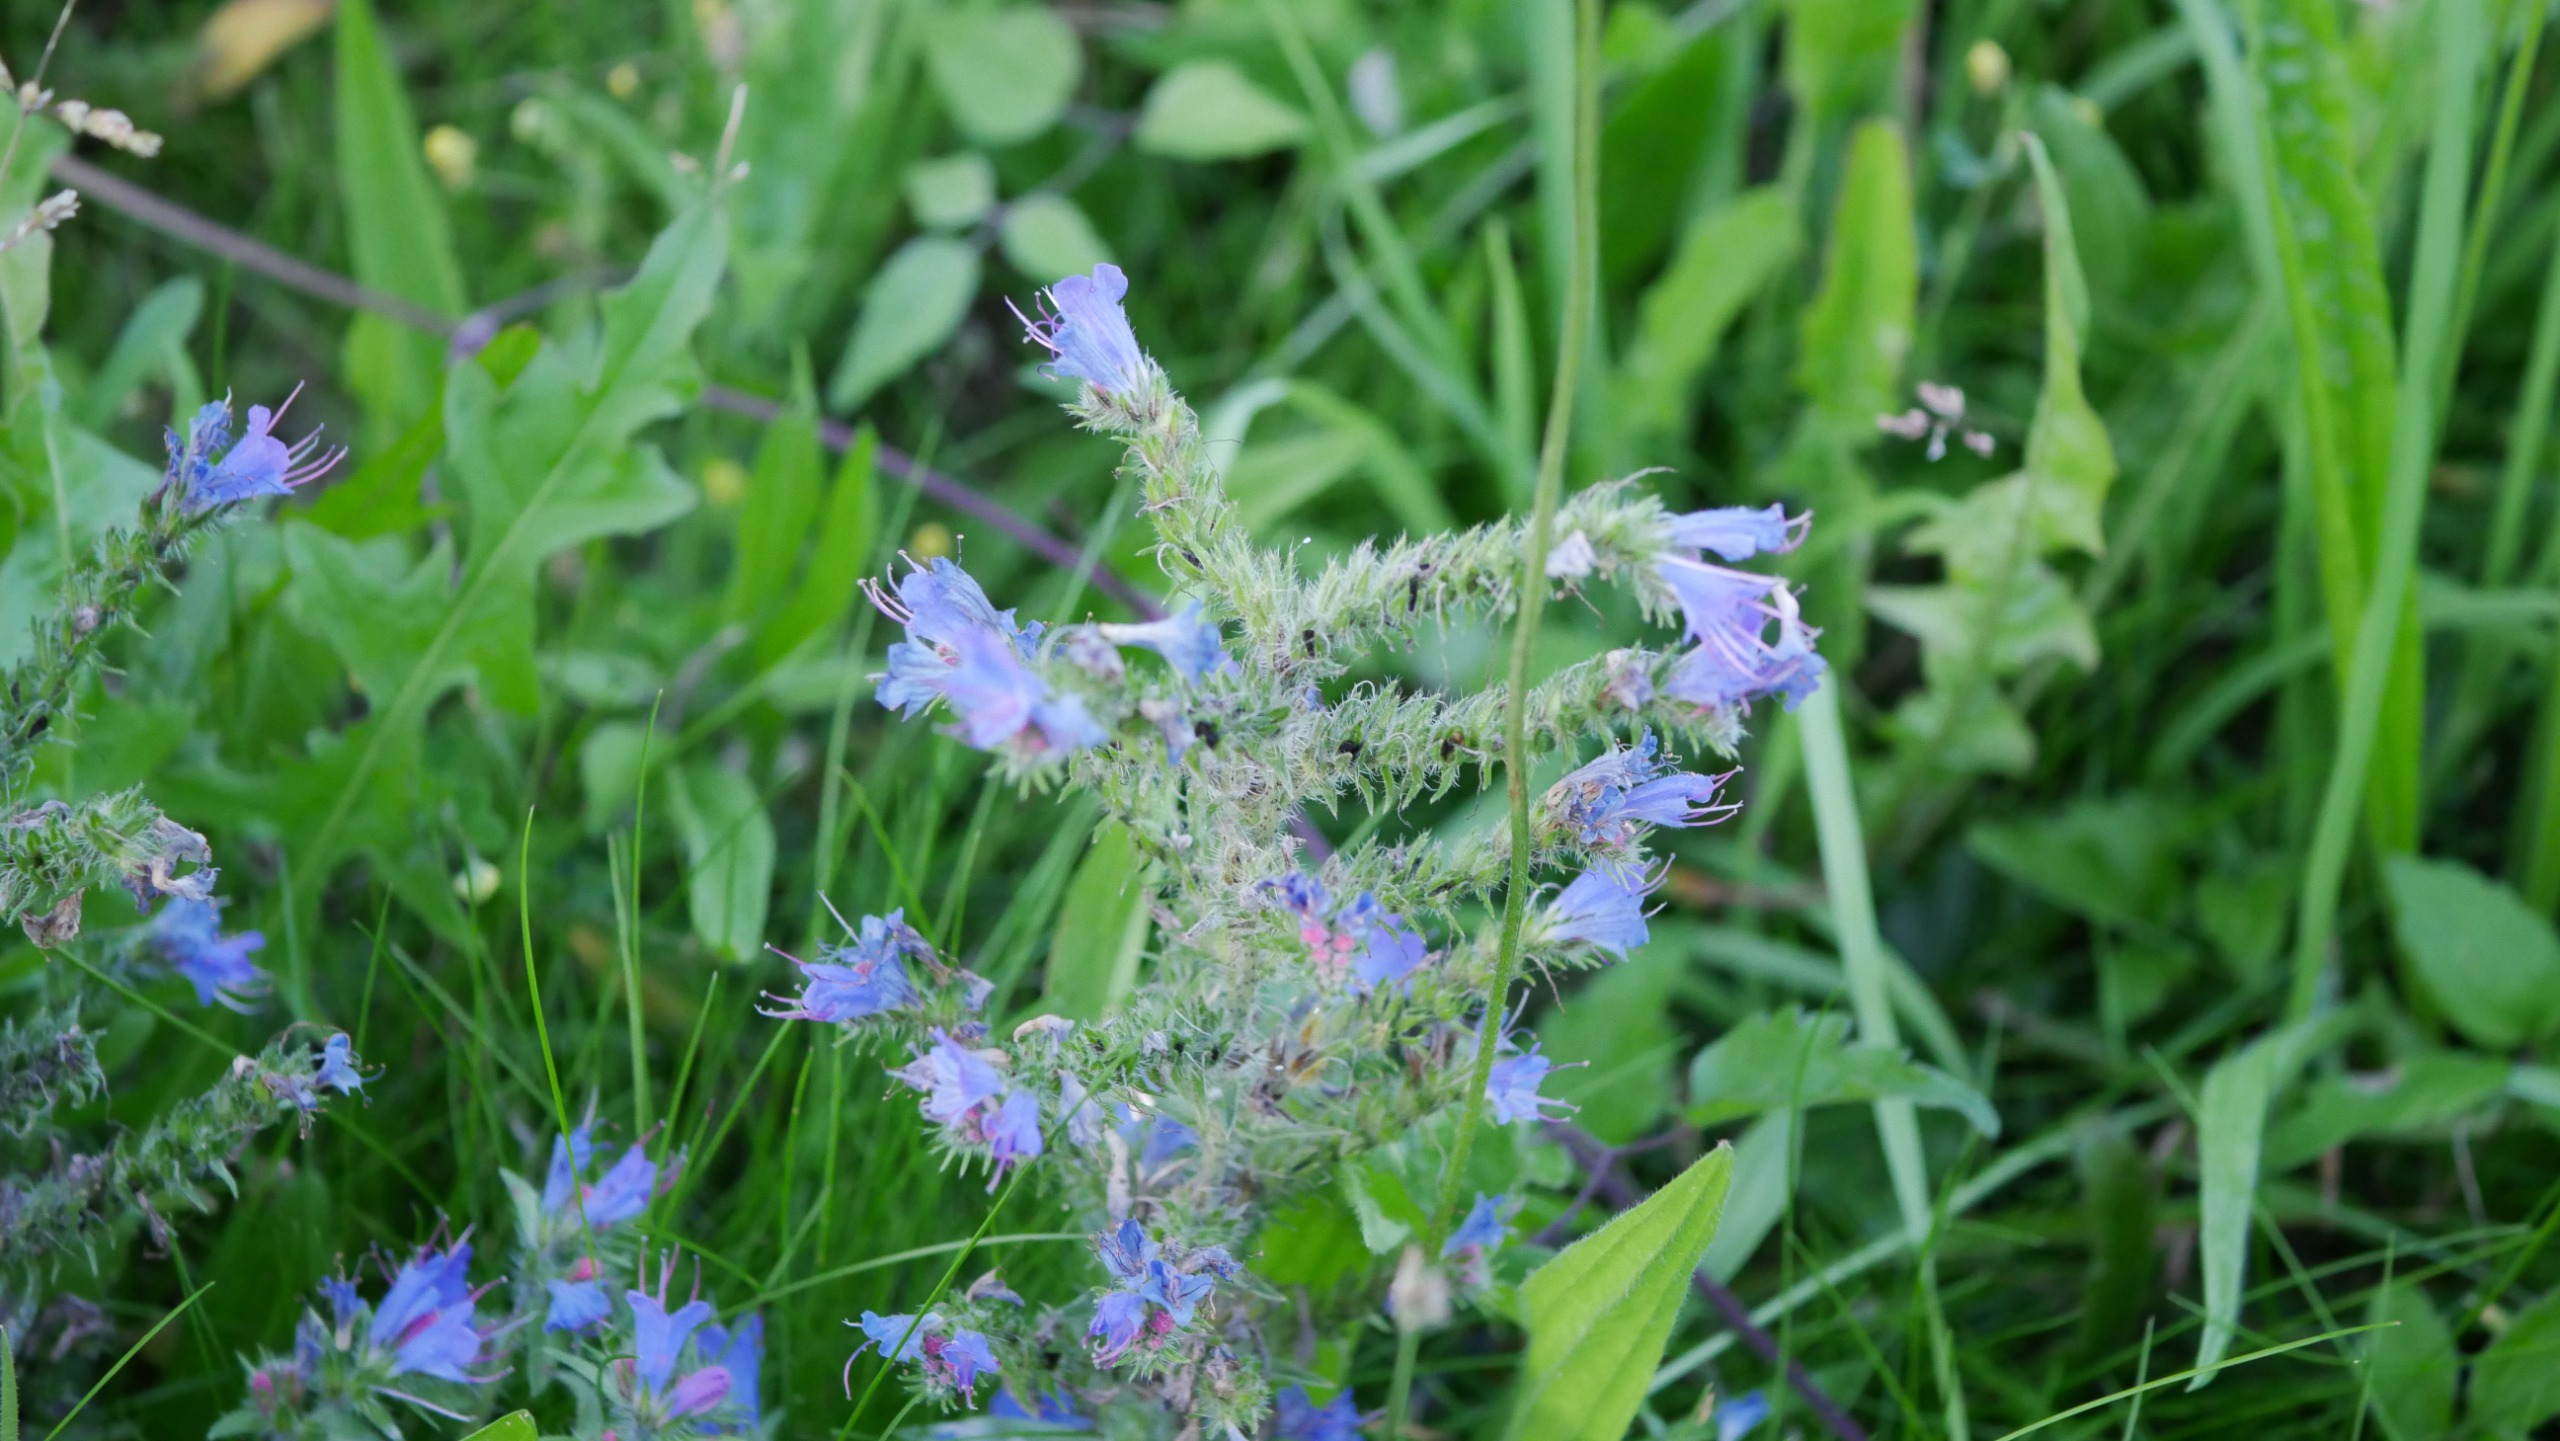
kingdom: Plantae
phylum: Tracheophyta
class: Magnoliopsida
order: Boraginales
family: Boraginaceae
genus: Echium
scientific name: Echium vulgare
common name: Slangehoved
